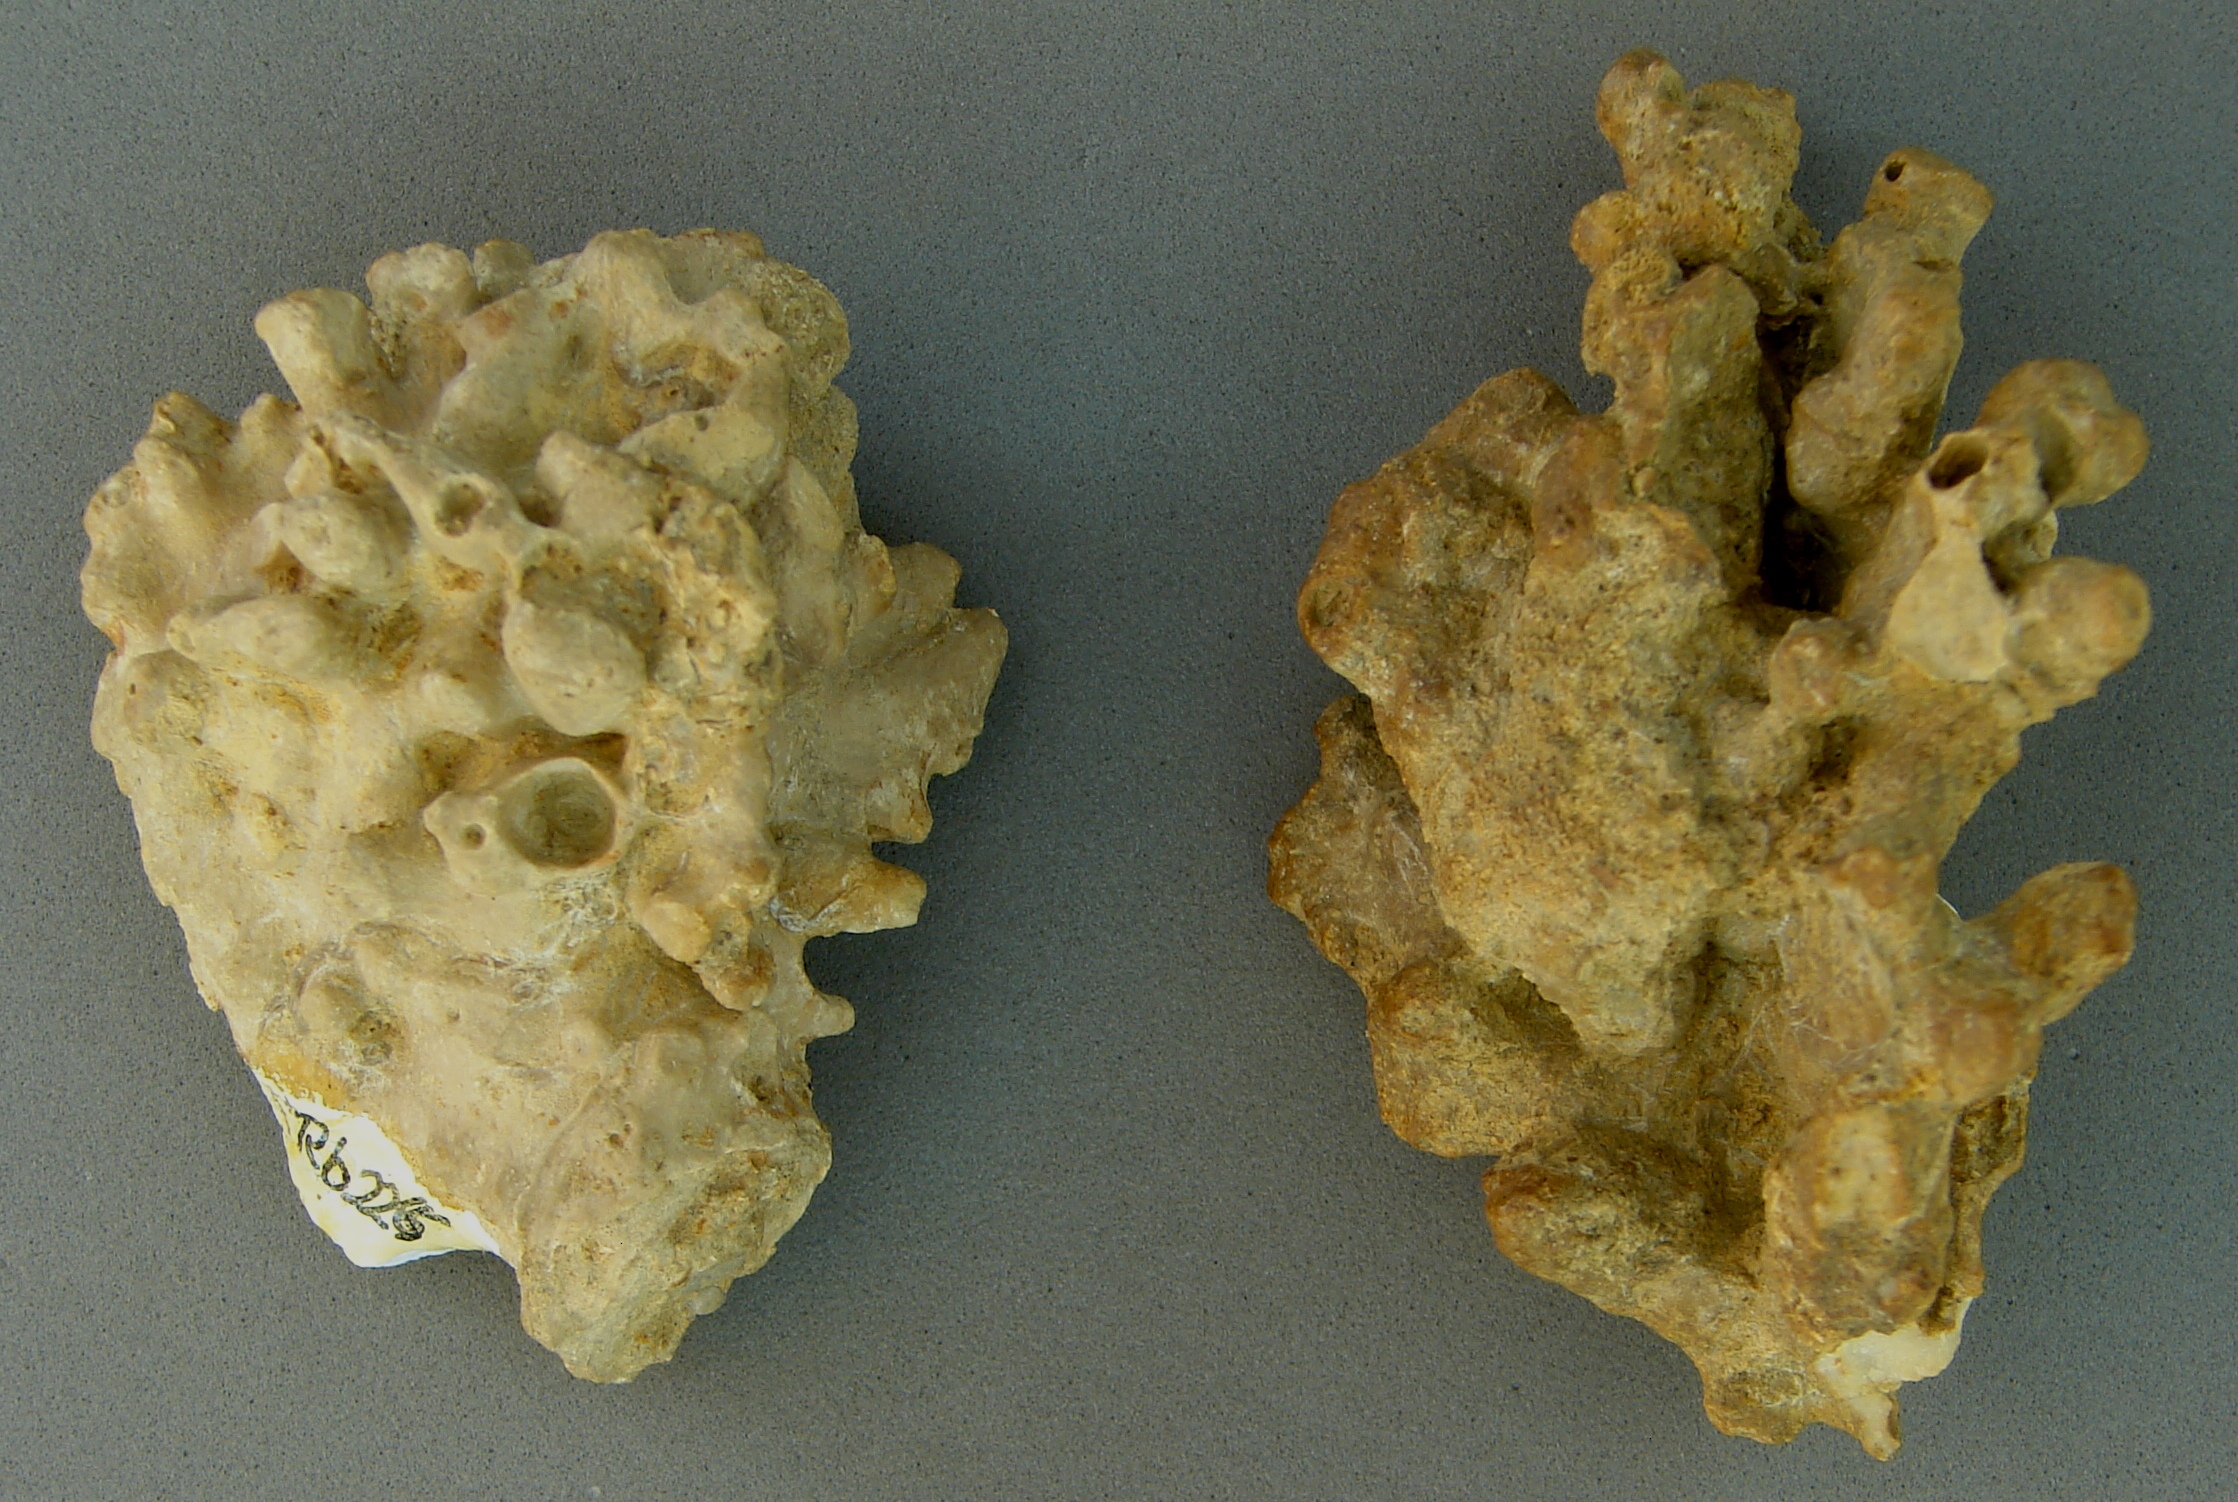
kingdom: Animalia
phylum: Porifera
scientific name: Porifera
